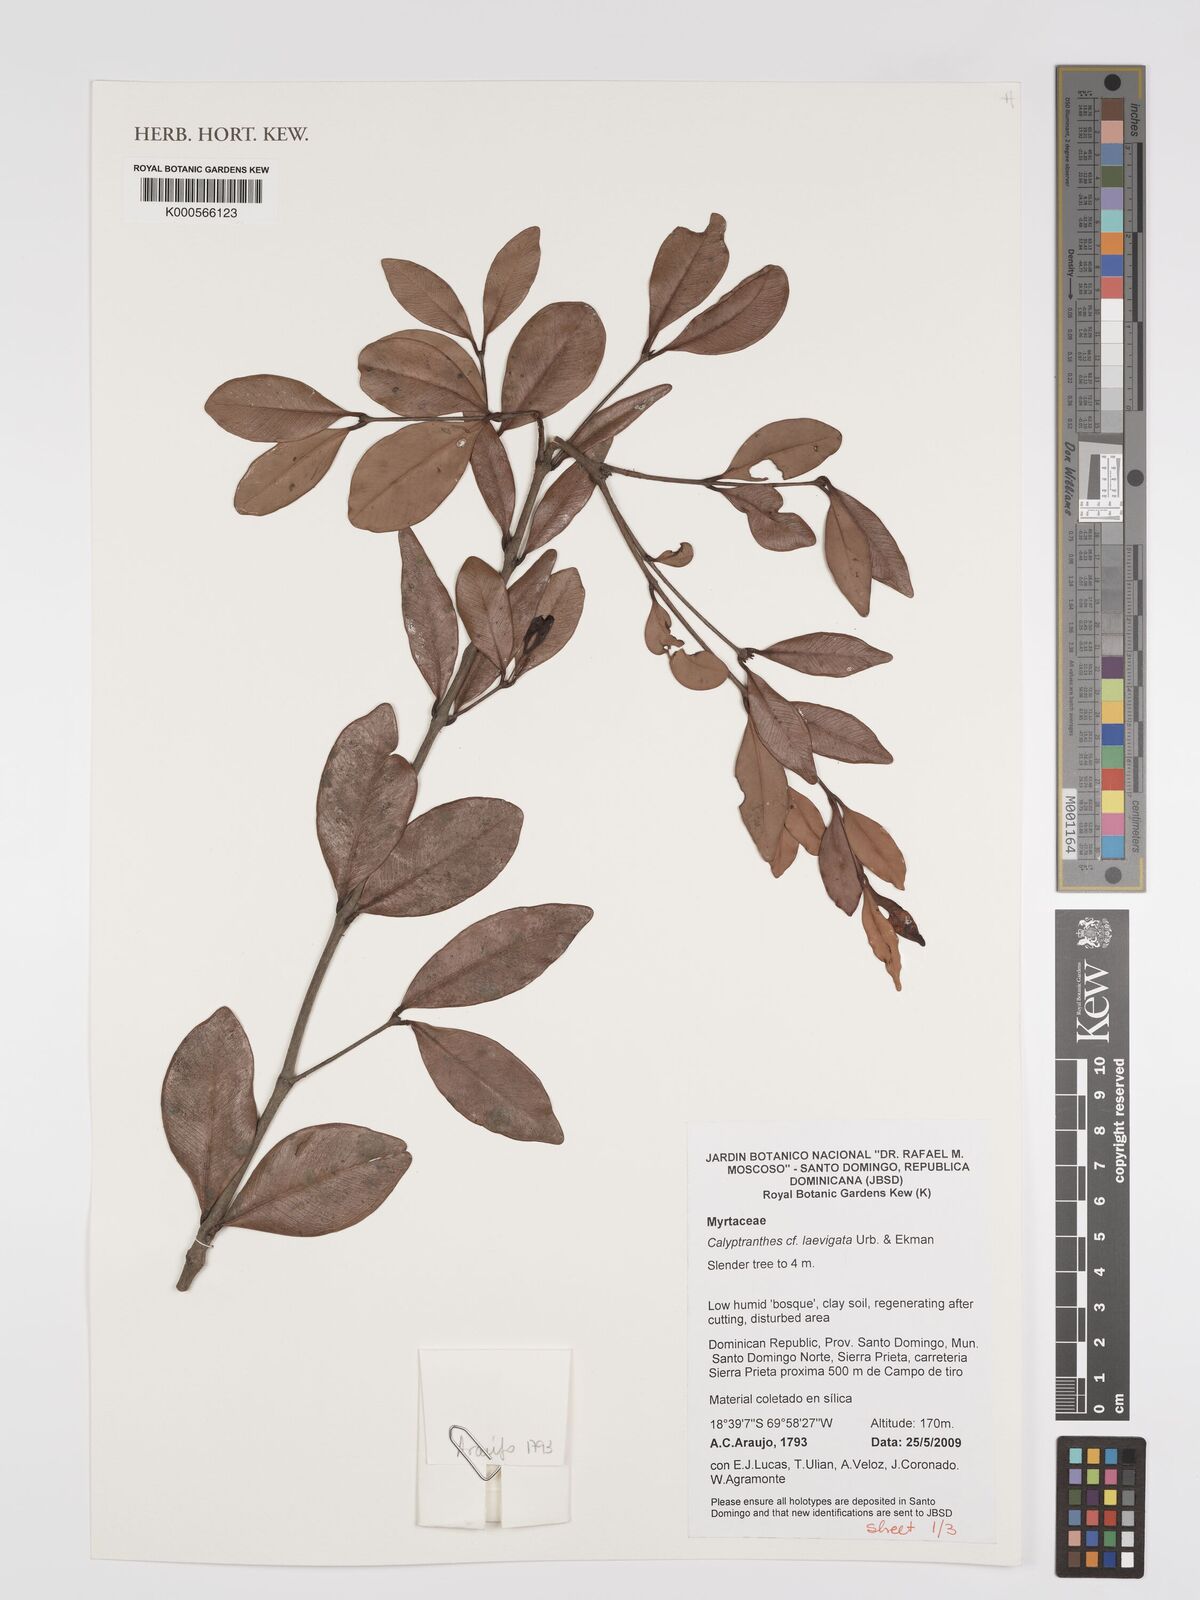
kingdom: Plantae
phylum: Tracheophyta
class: Magnoliopsida
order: Myrtales
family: Myrtaceae
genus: Myrcia
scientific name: Myrcia neolaevigata
